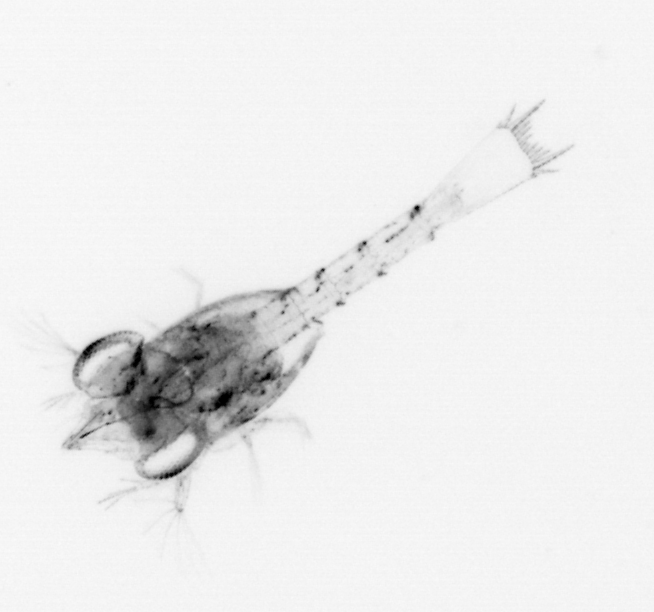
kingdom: Animalia
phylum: Arthropoda
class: Malacostraca
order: Decapoda
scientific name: Decapoda
